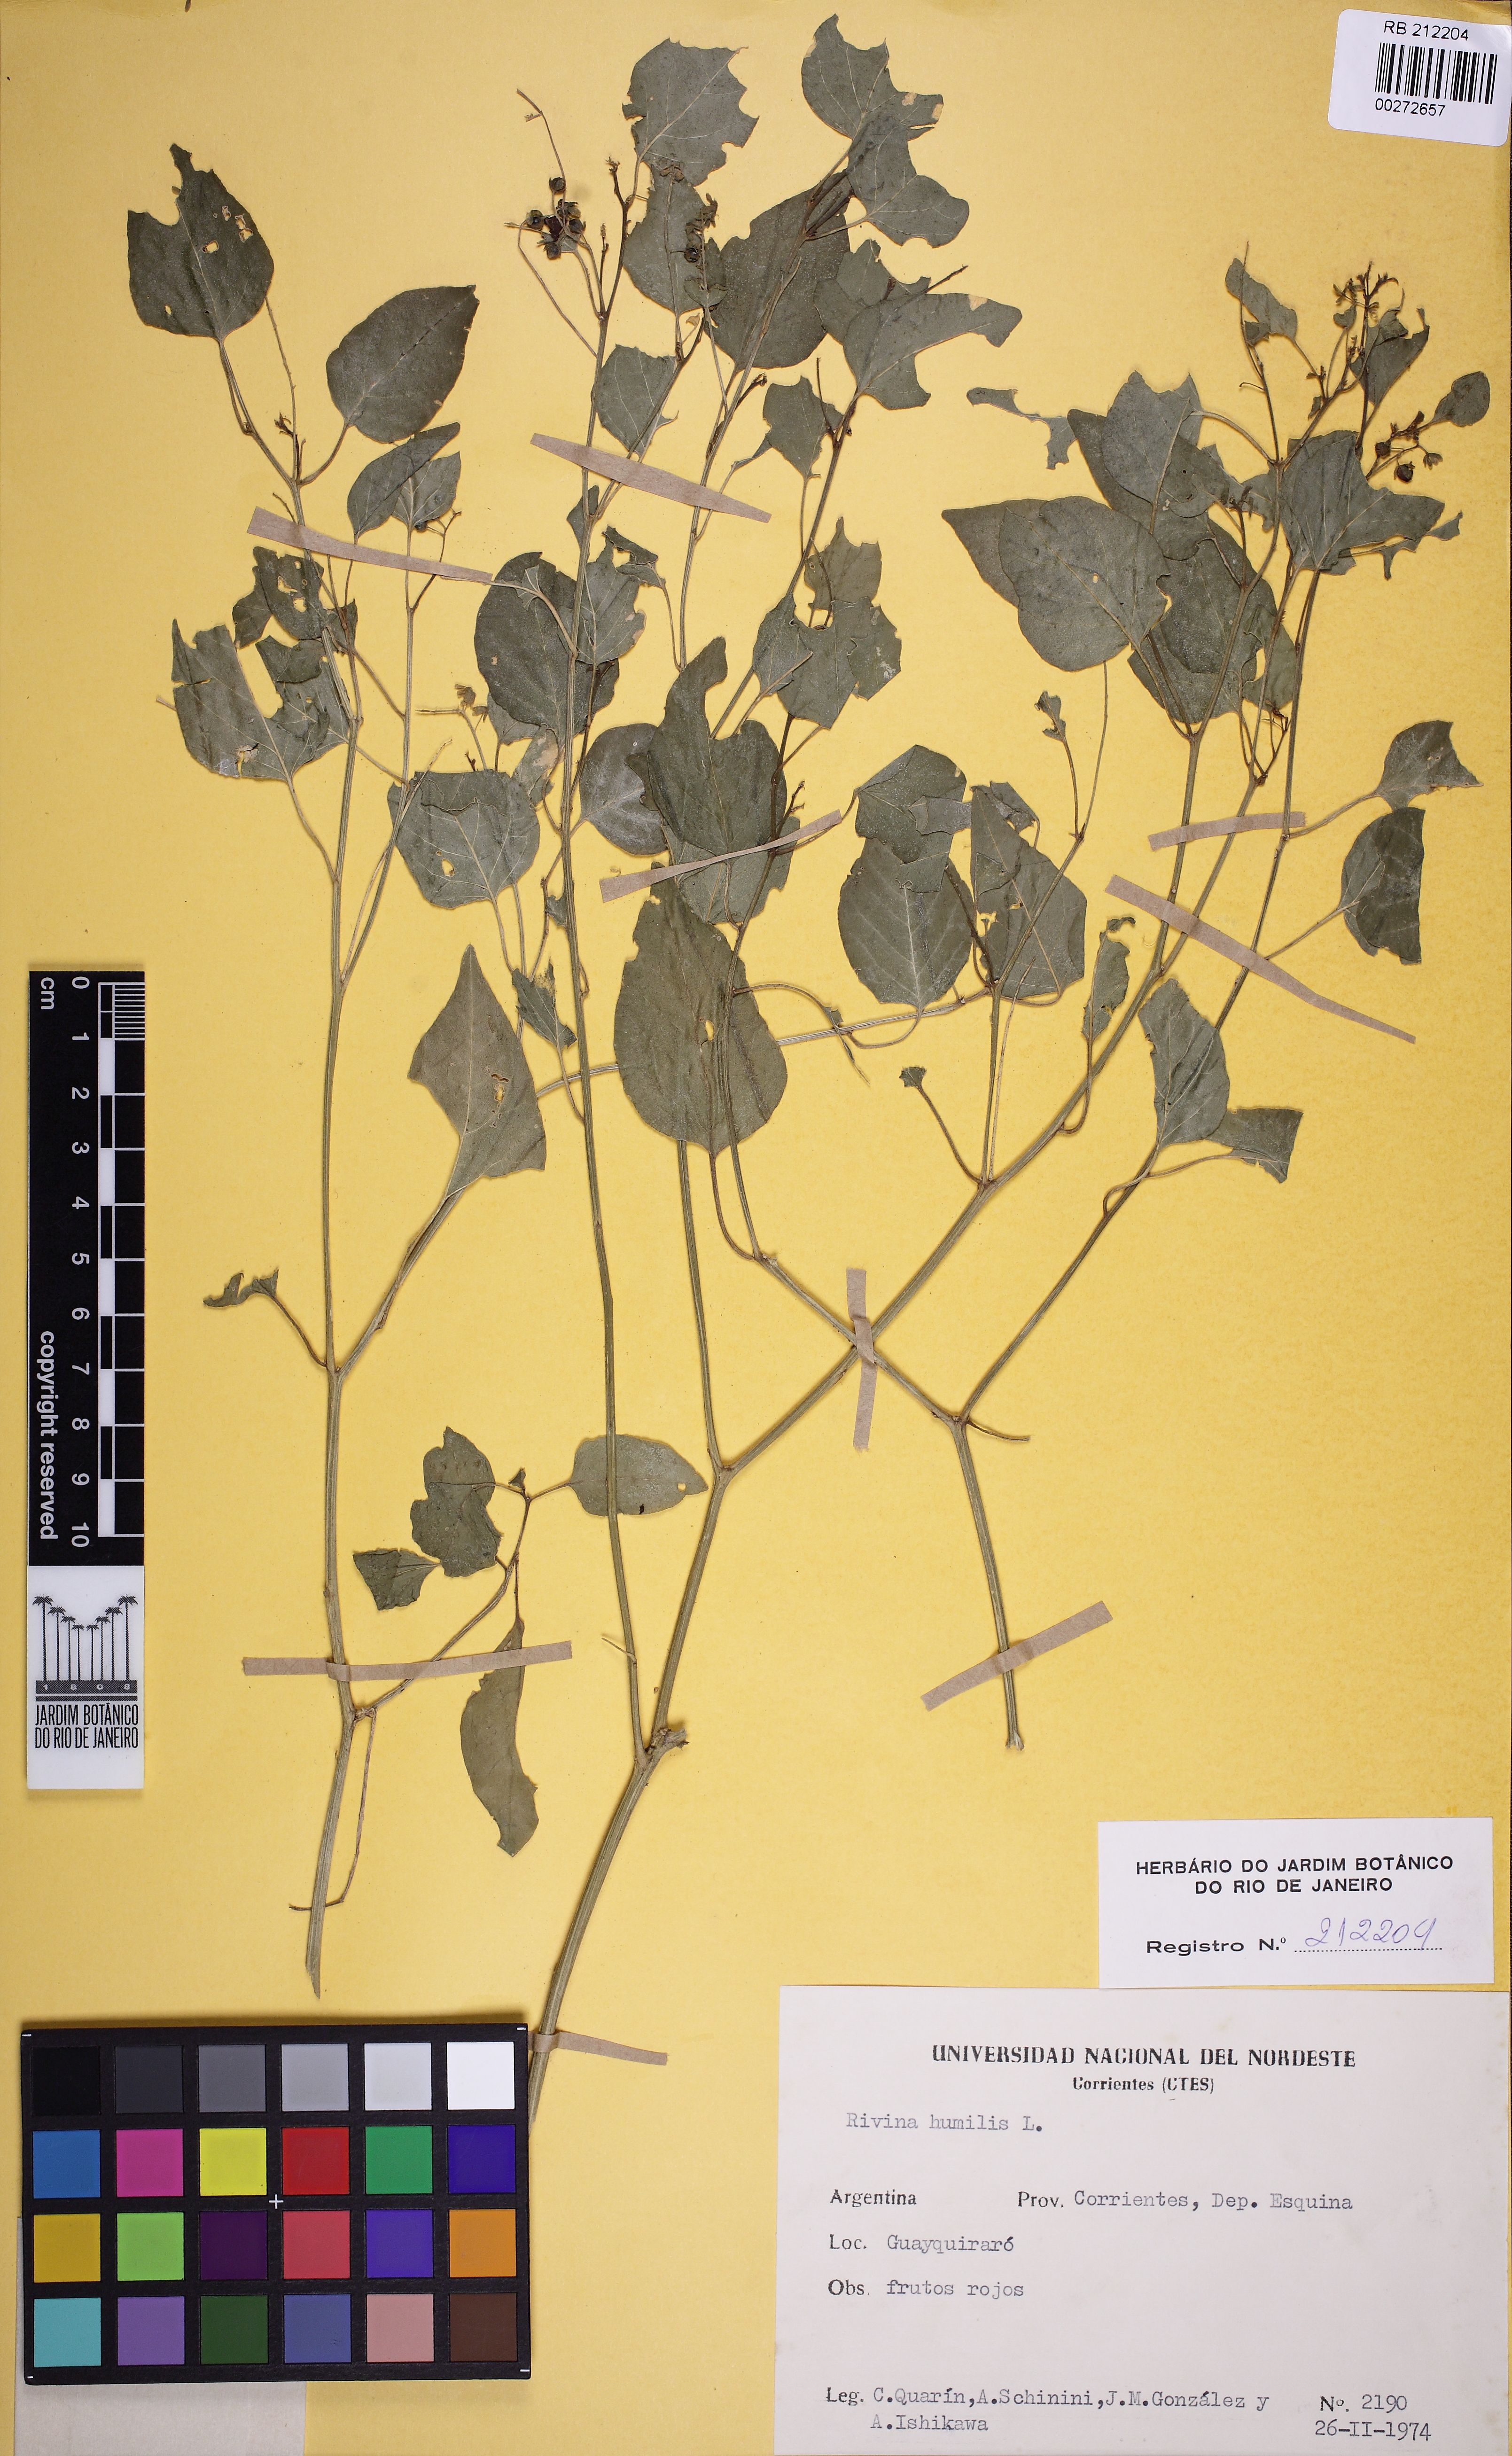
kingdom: Plantae
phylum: Tracheophyta
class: Magnoliopsida
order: Caryophyllales
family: Phytolaccaceae
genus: Rivina
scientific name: Rivina humilis
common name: Rougeplant
